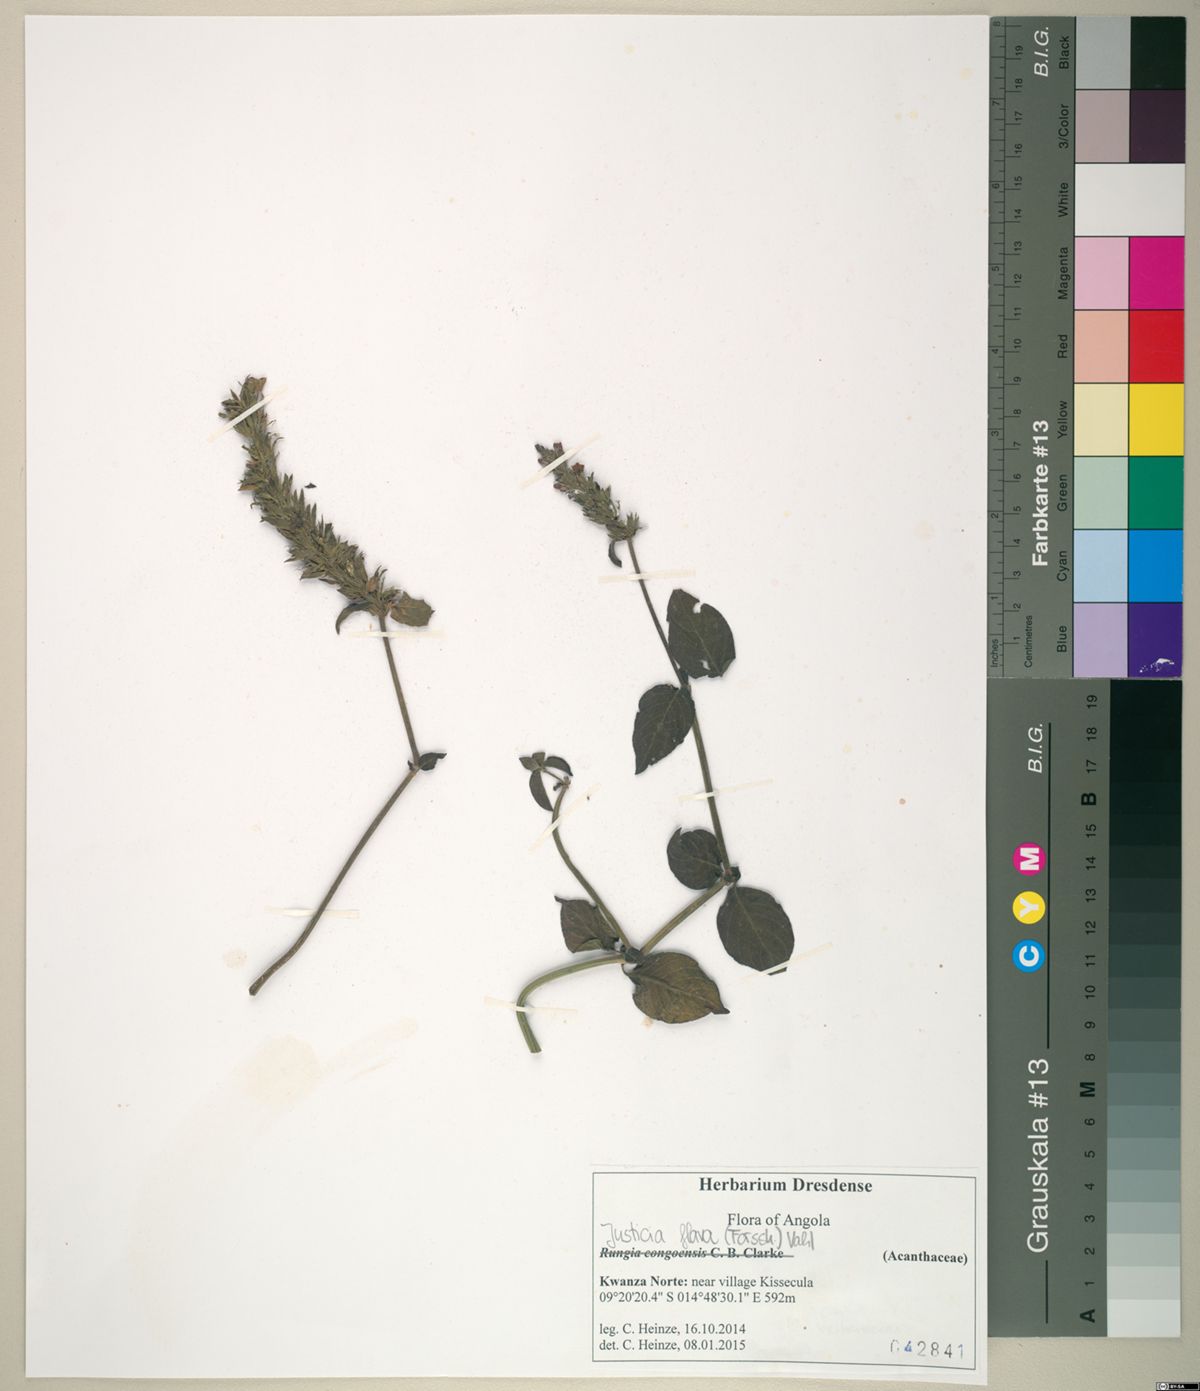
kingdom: Plantae
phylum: Tracheophyta
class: Magnoliopsida
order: Lamiales
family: Acanthaceae
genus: Justicia
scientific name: Justicia flava
